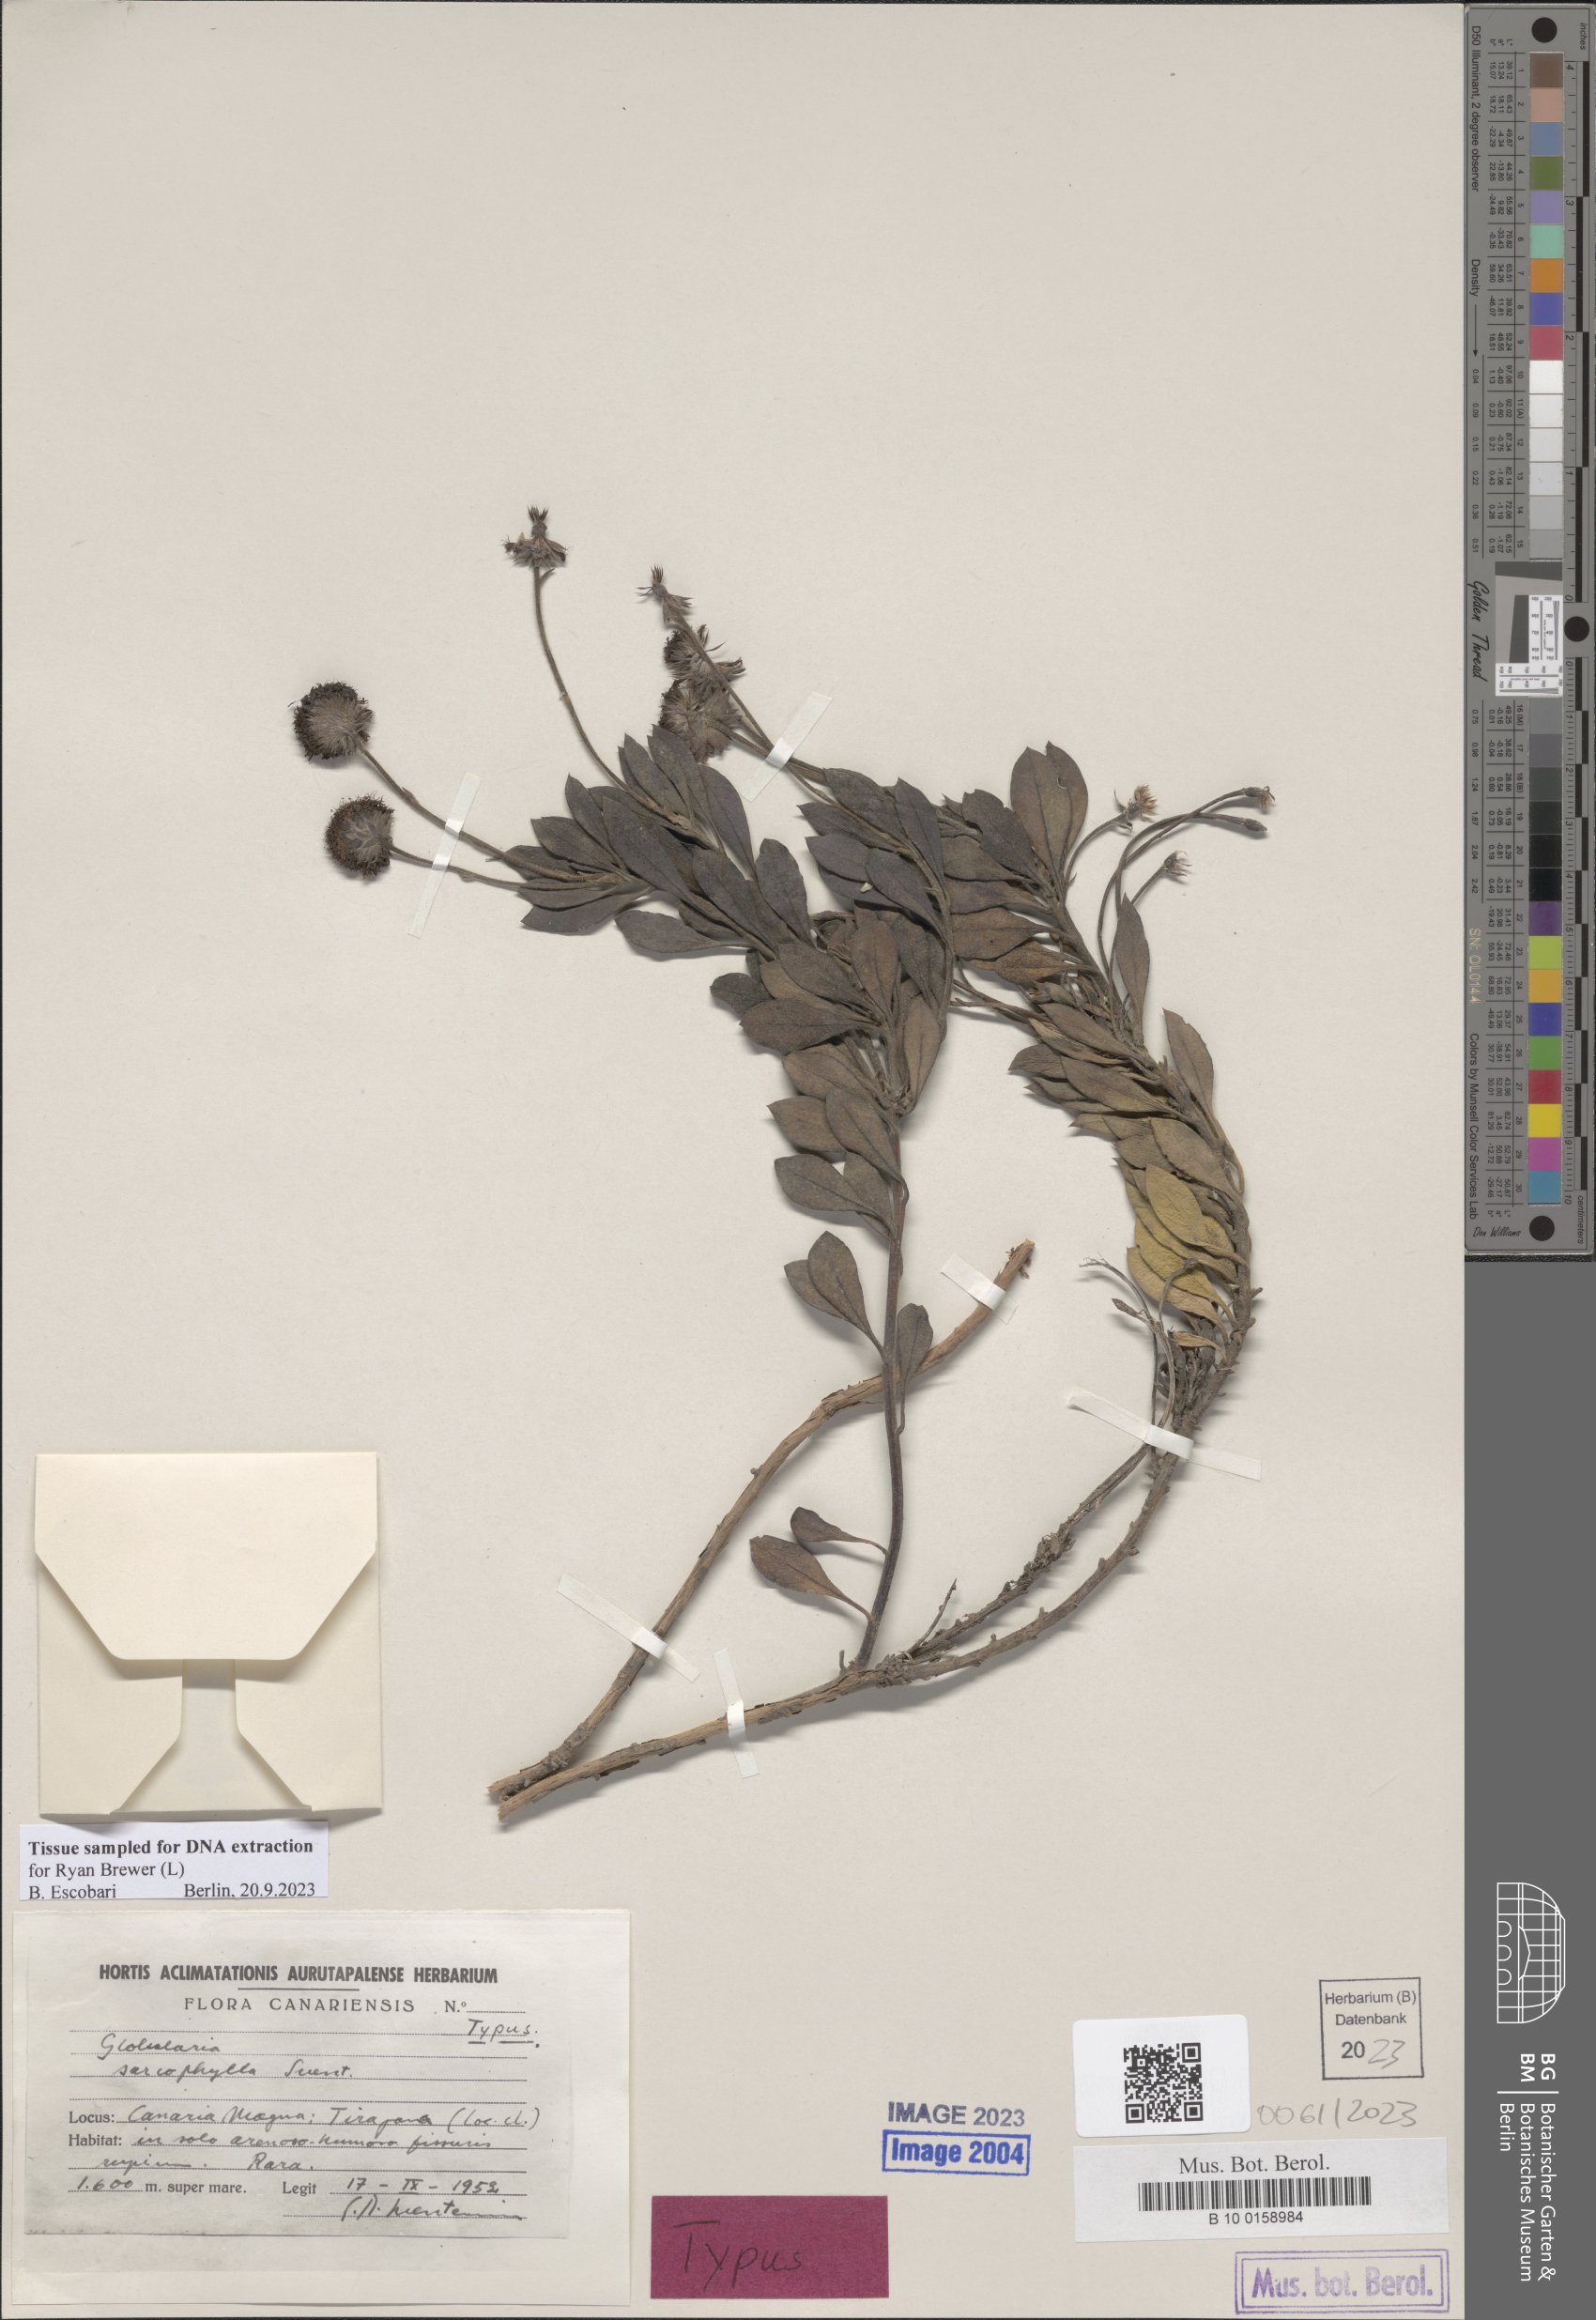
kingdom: Plantae
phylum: Tracheophyta
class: Magnoliopsida
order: Lamiales
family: Plantaginaceae
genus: Globularia
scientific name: Globularia sarcophylla
